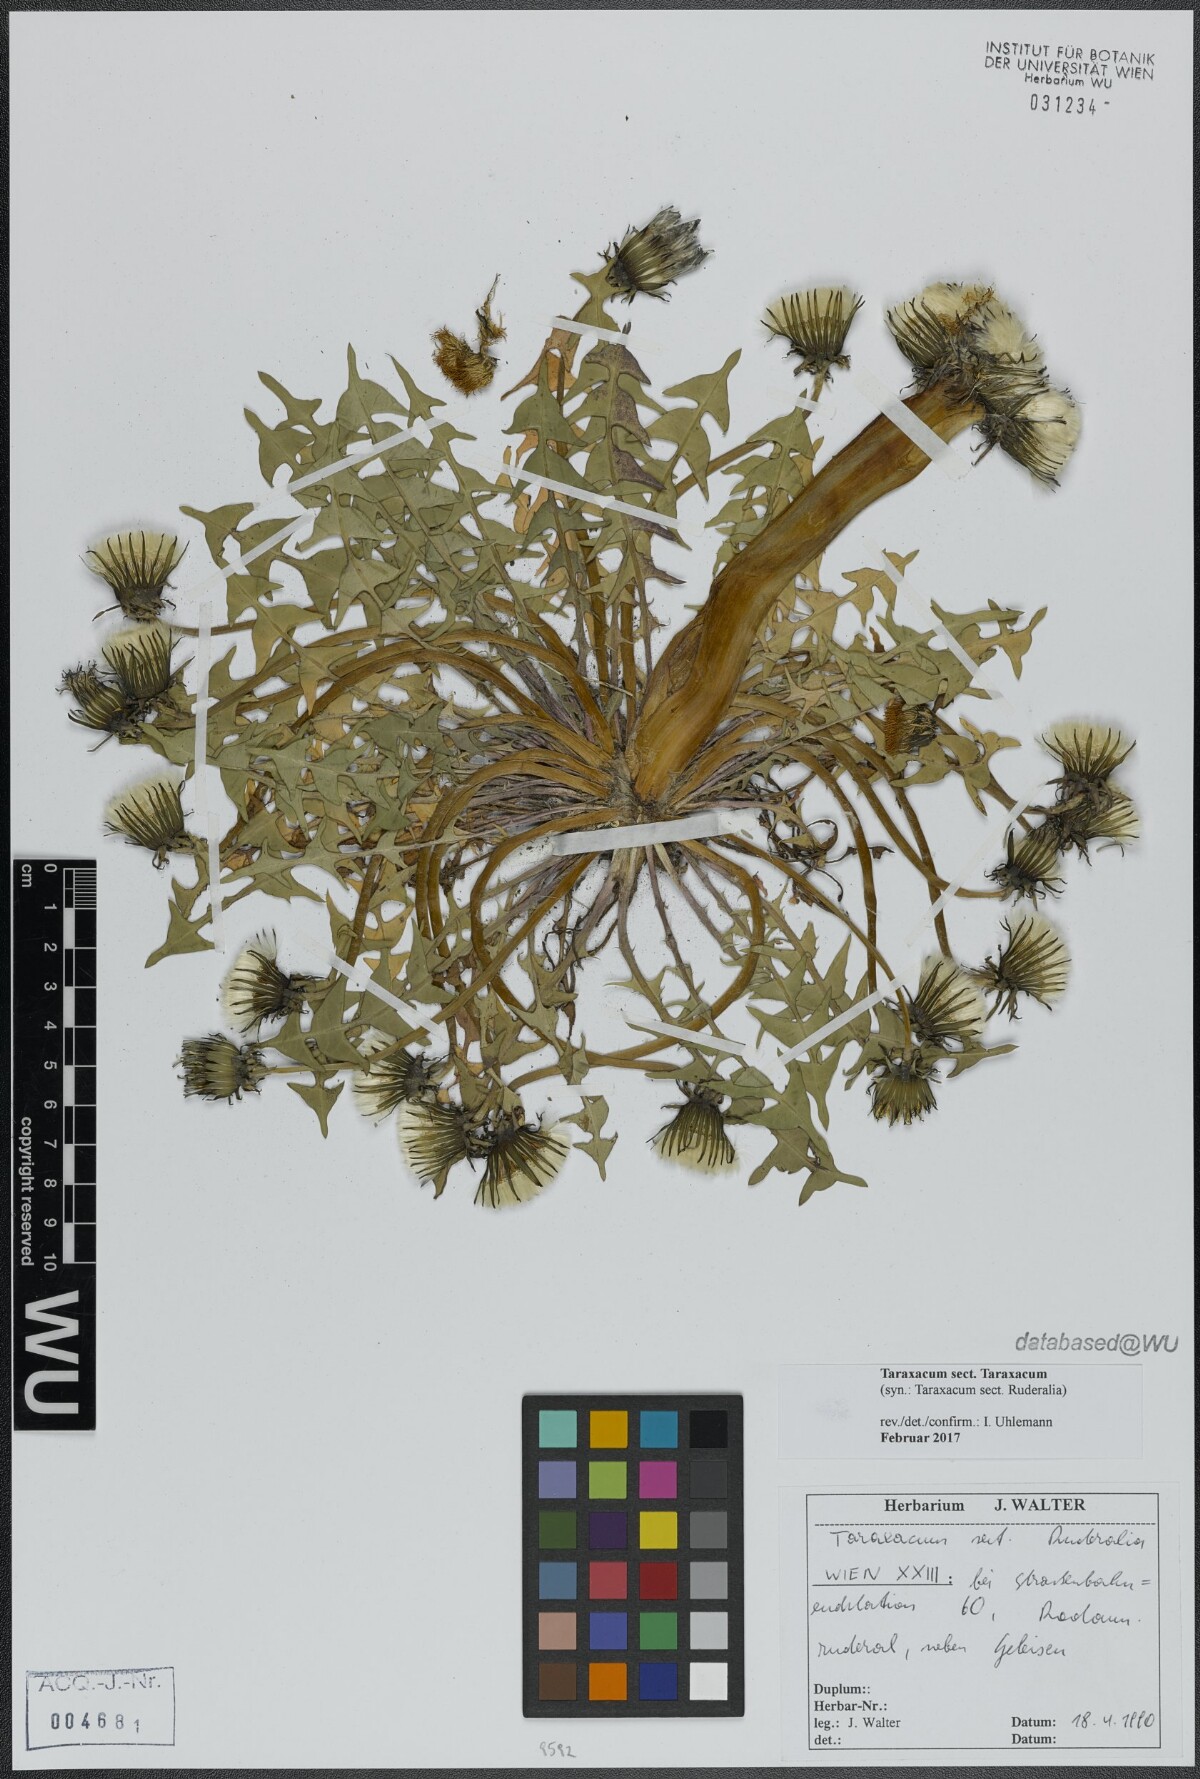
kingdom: Plantae
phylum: Tracheophyta
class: Magnoliopsida
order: Asterales
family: Asteraceae
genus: Taraxacum
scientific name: Taraxacum
